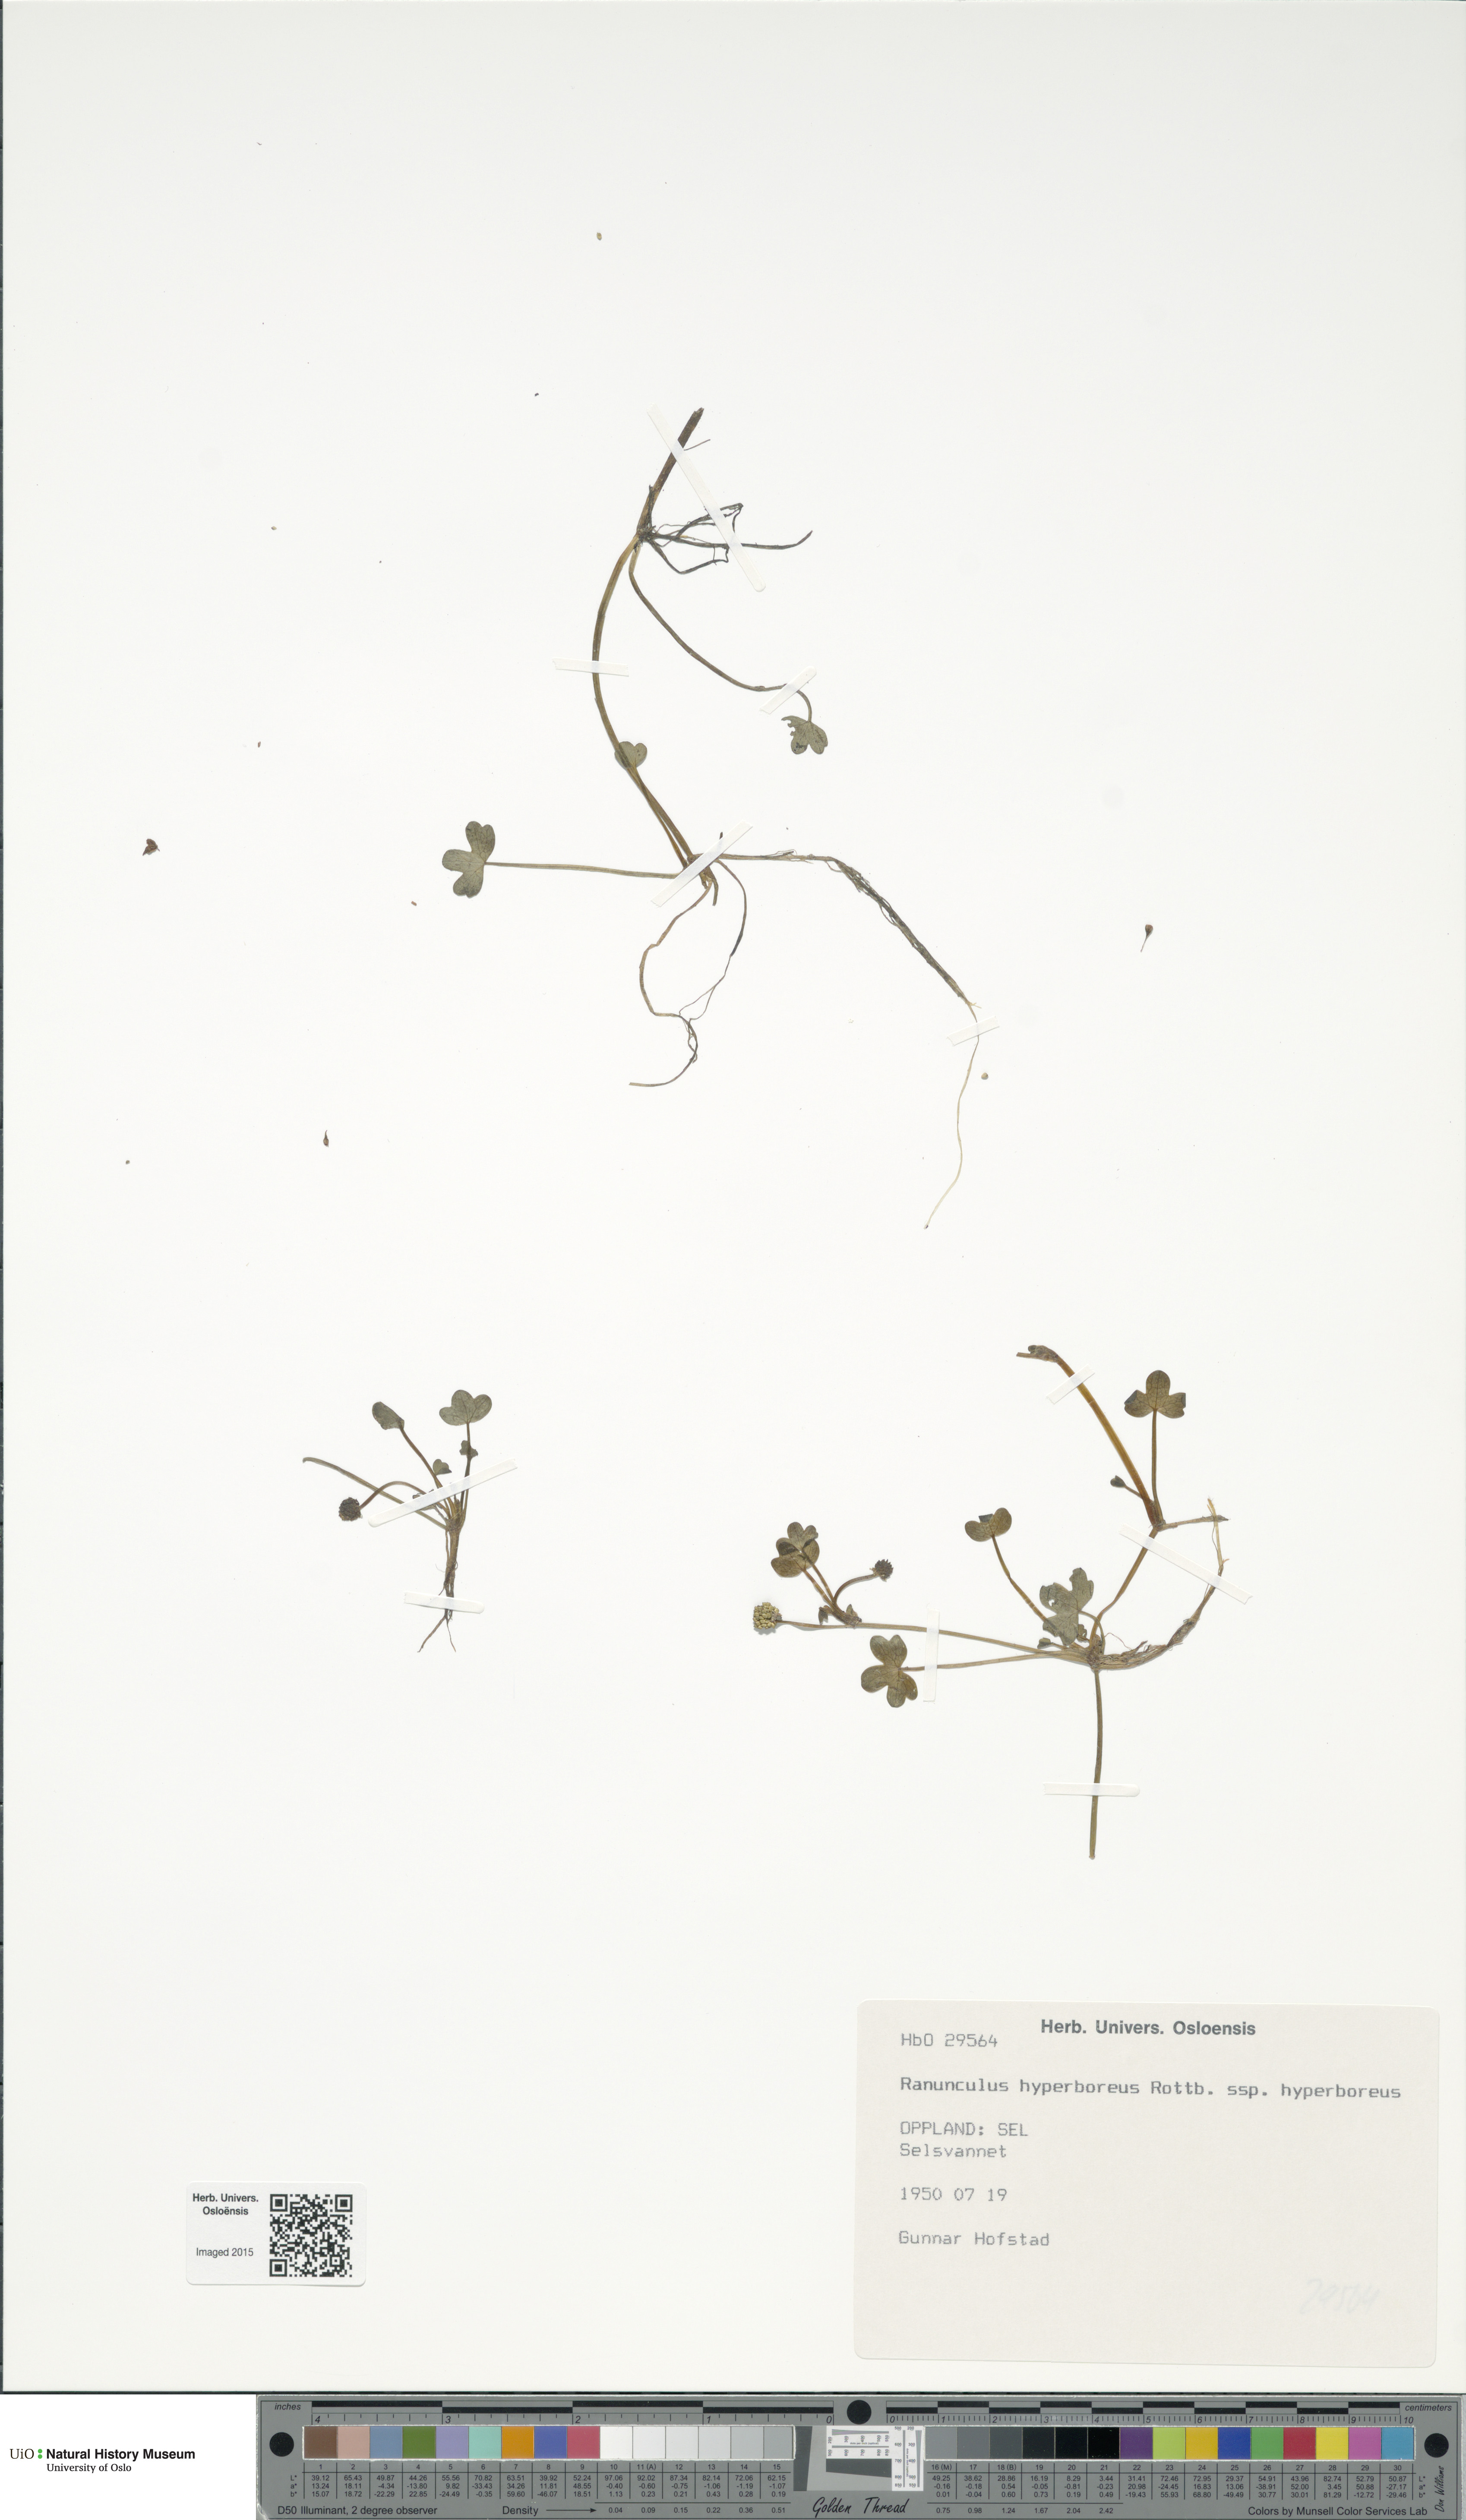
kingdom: Plantae
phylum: Tracheophyta
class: Magnoliopsida
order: Ranunculales
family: Ranunculaceae
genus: Ranunculus
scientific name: Ranunculus hyperboreus
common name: Arctic buttercup
